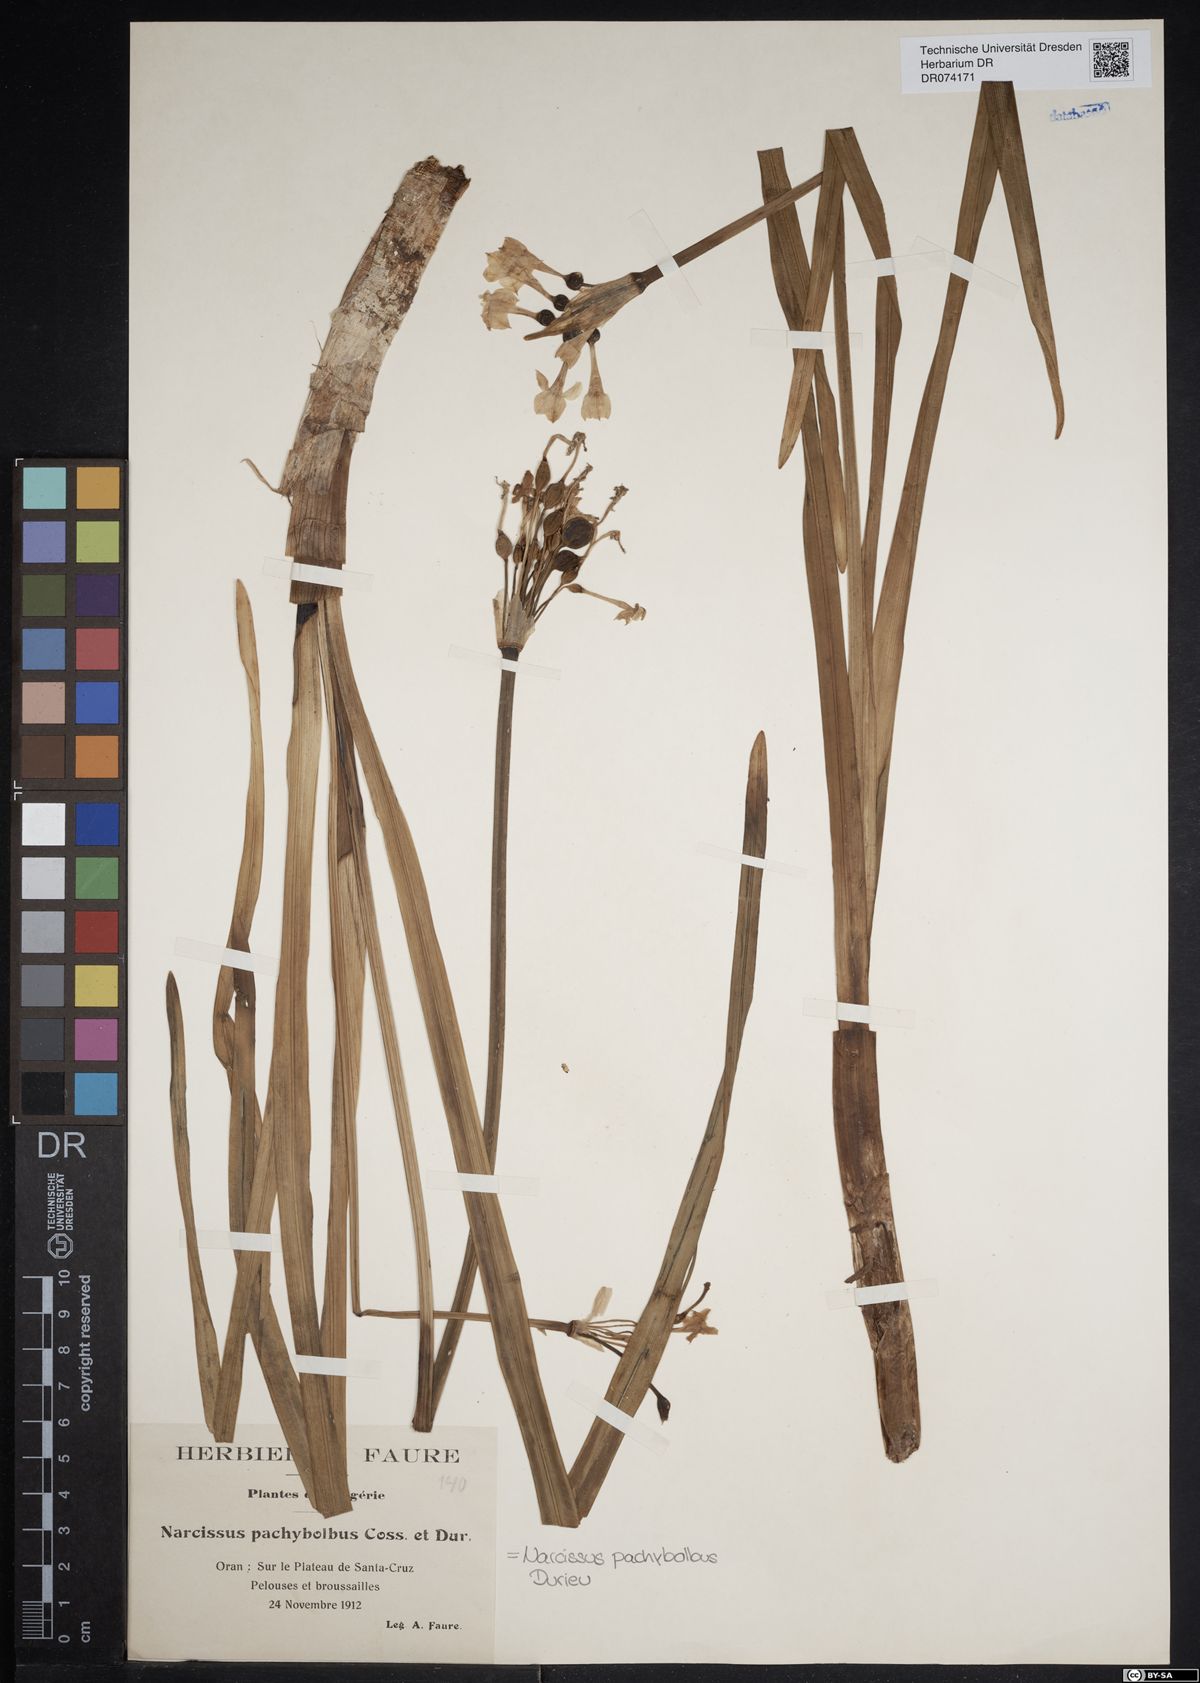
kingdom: Plantae
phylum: Tracheophyta
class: Liliopsida
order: Asparagales
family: Amaryllidaceae
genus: Narcissus
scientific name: Narcissus pachybolbus
